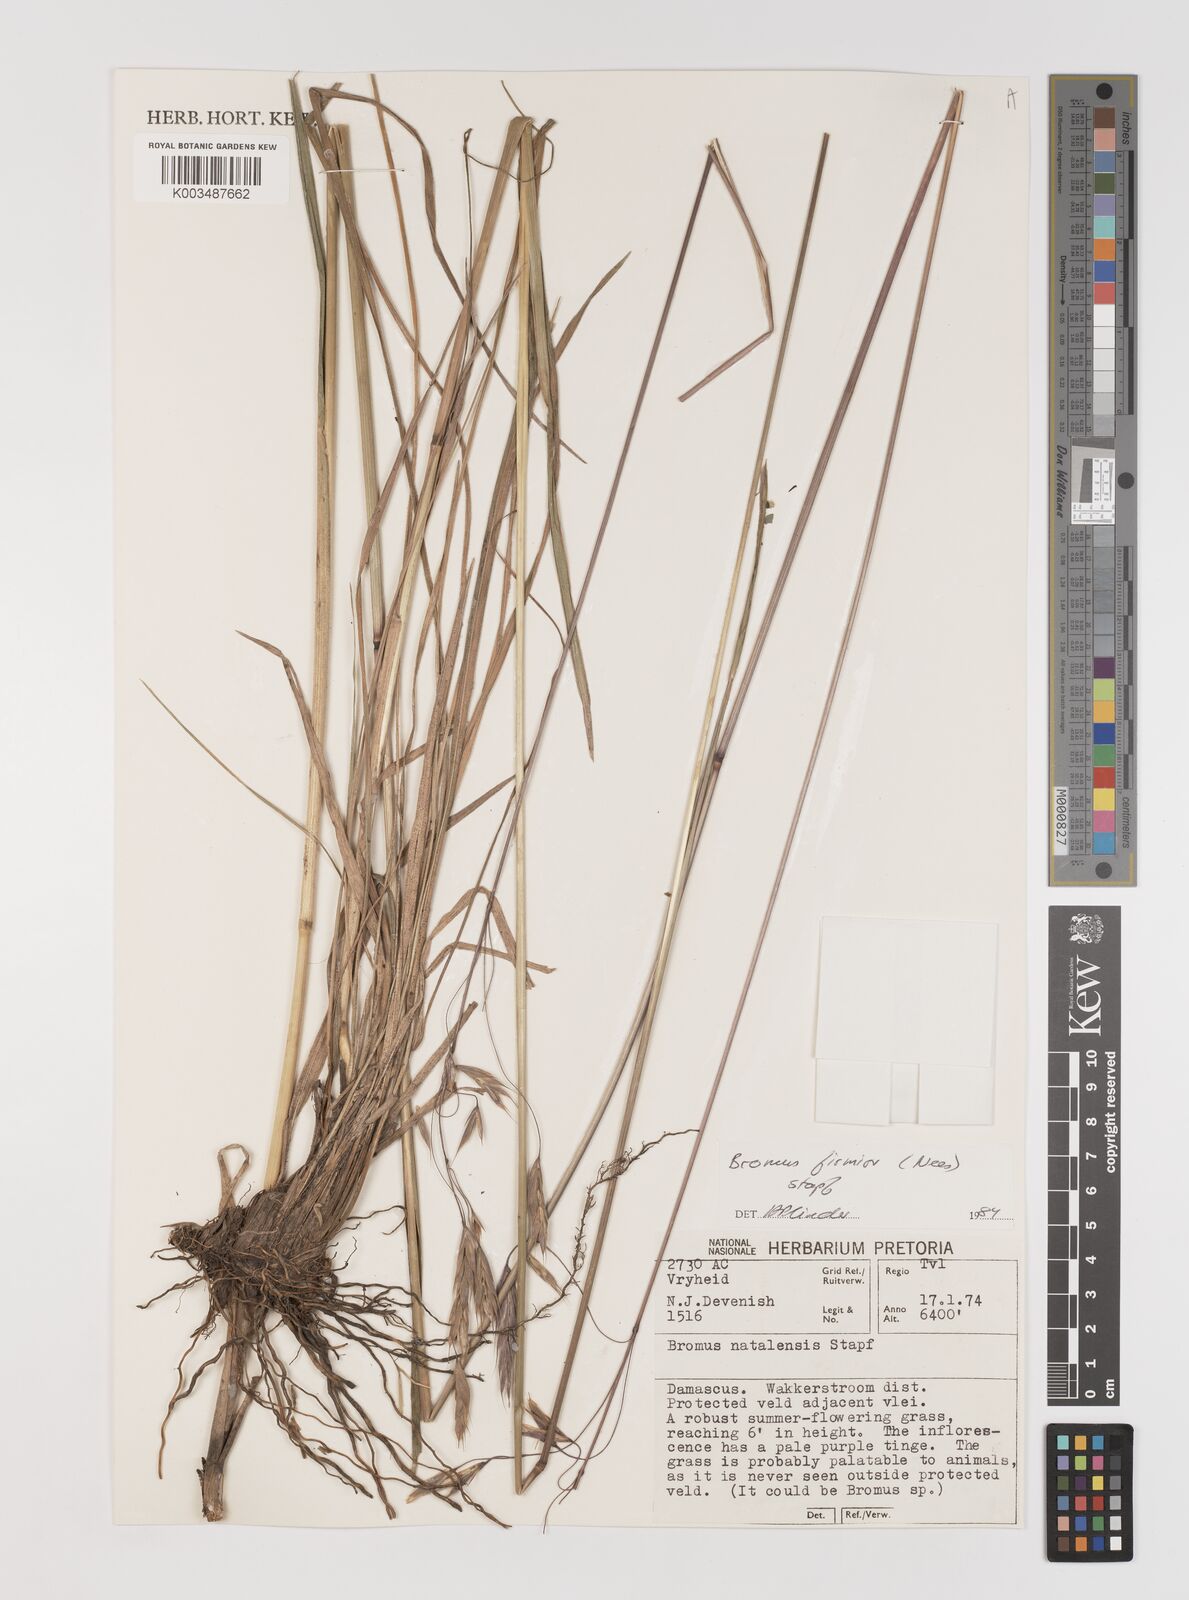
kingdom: Plantae
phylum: Tracheophyta
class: Liliopsida
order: Poales
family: Poaceae
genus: Bromus
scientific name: Bromus firmior
